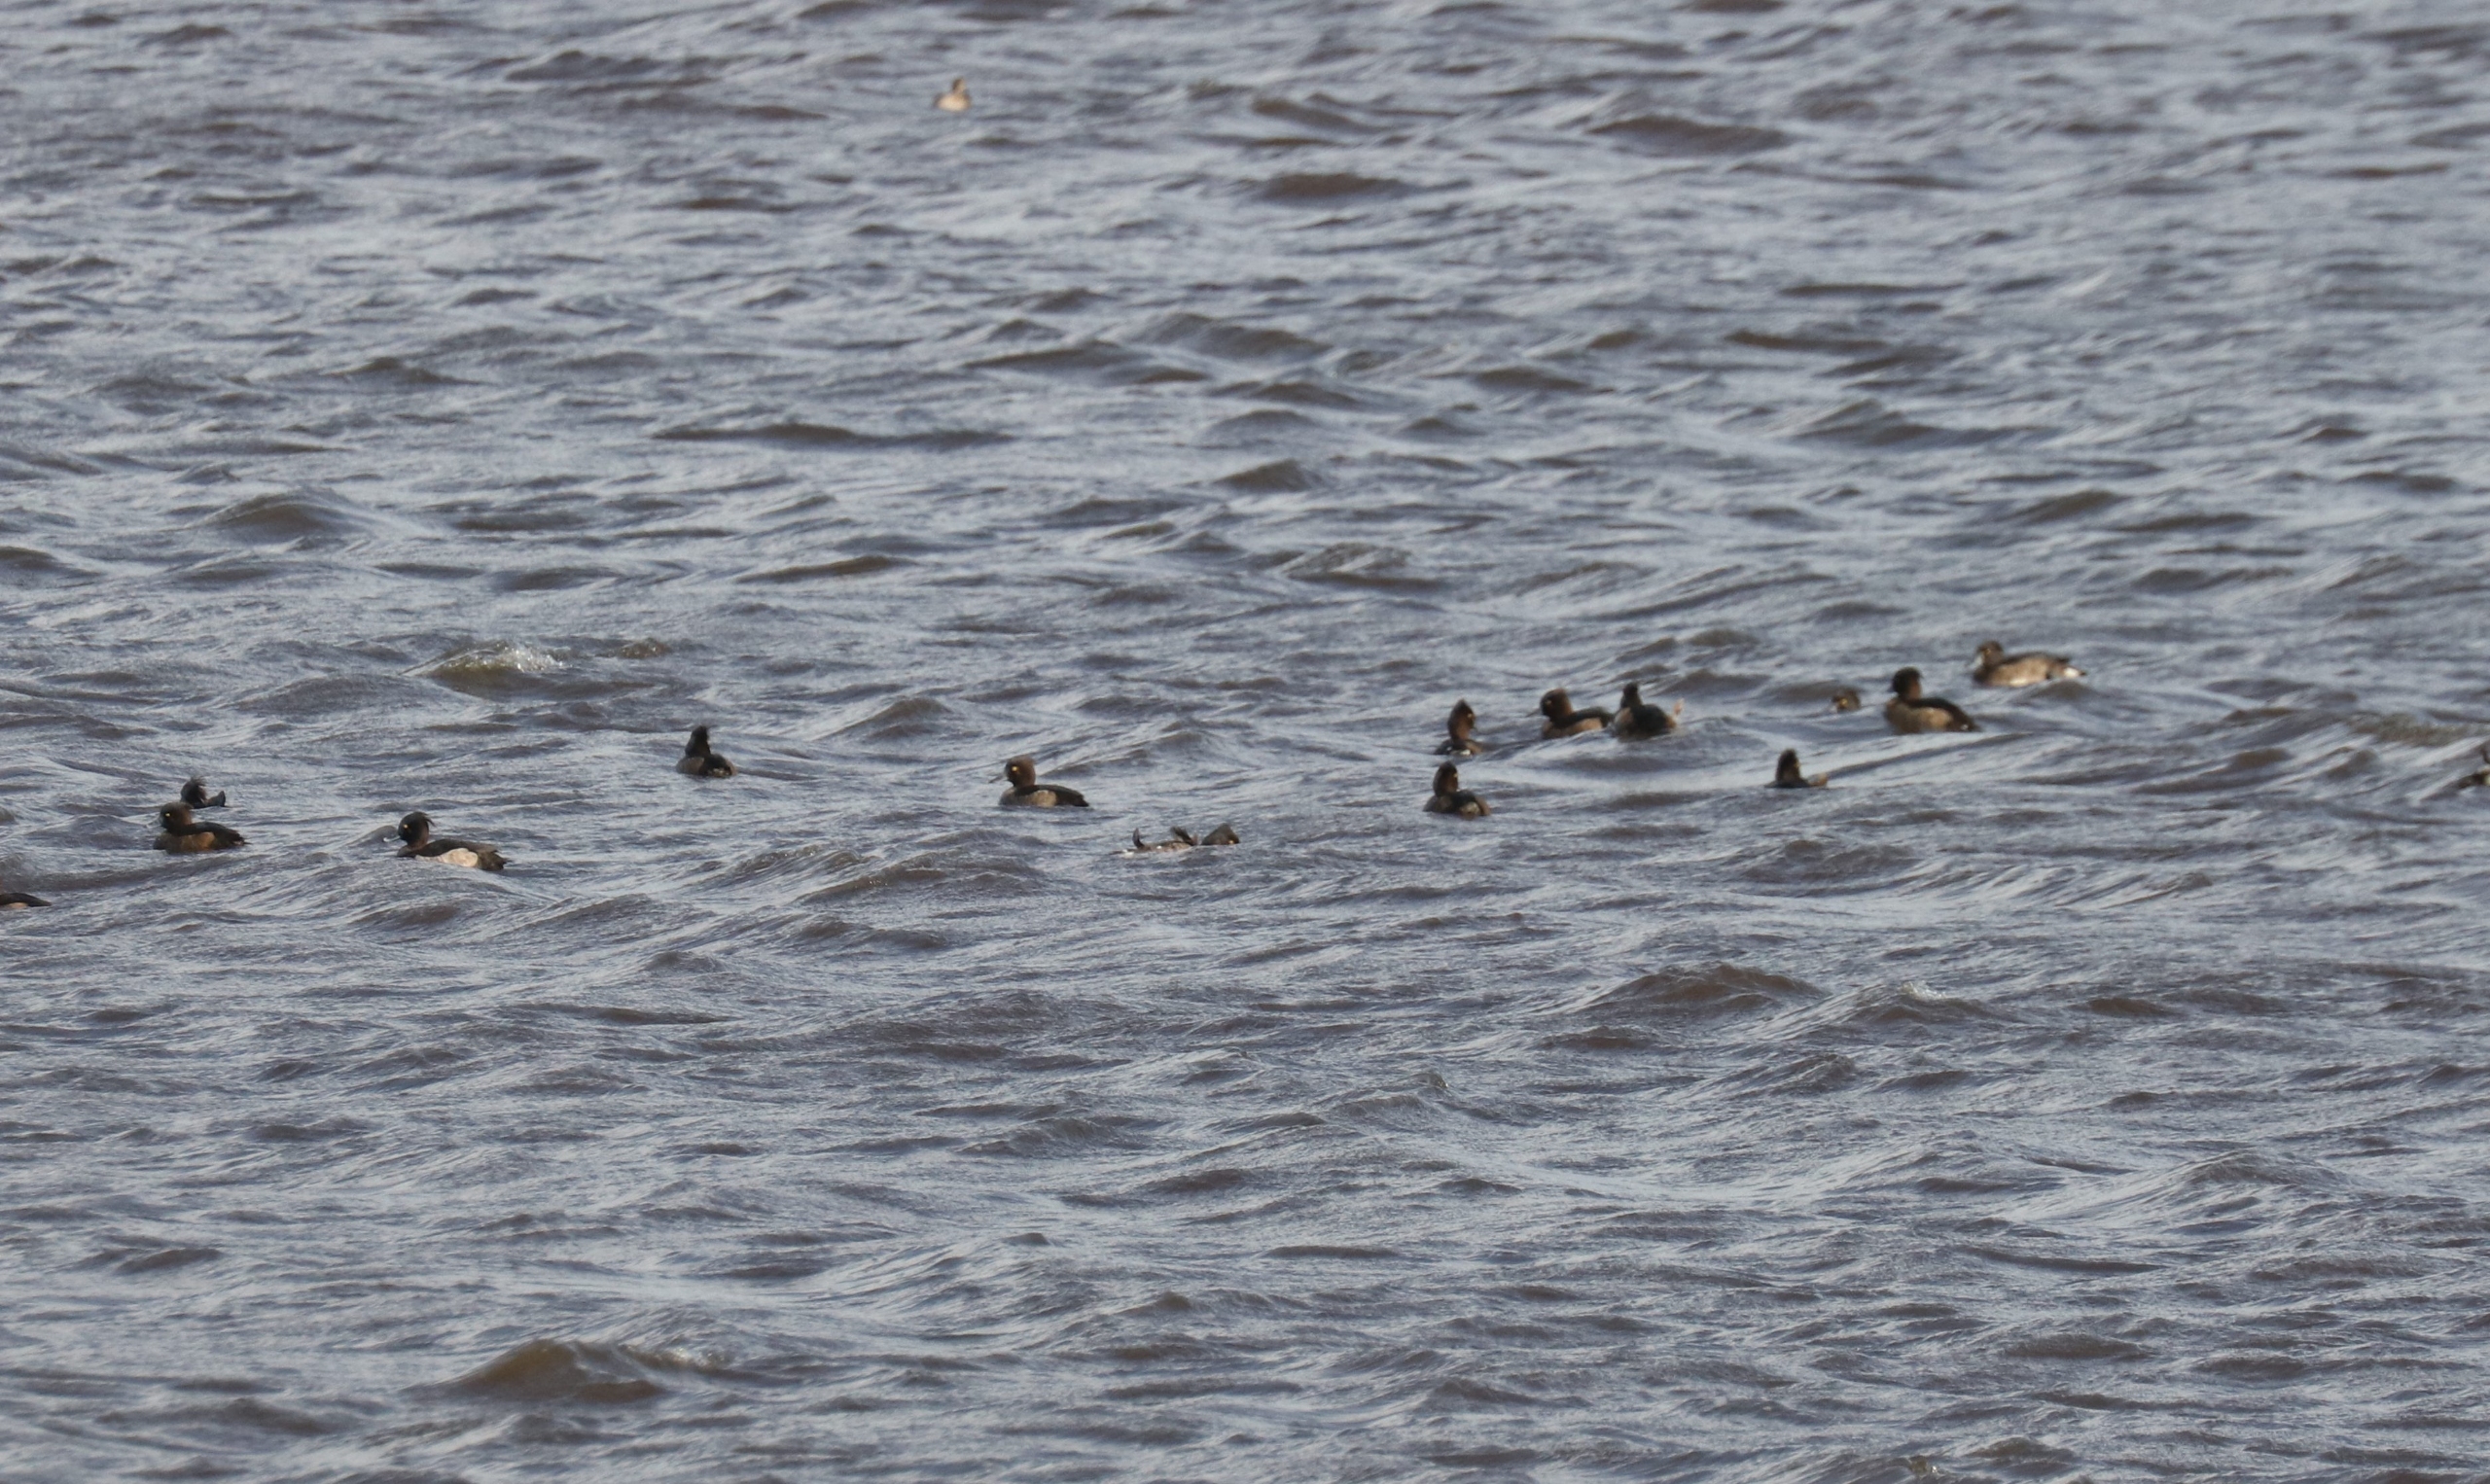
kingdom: Animalia
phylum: Chordata
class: Aves
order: Anseriformes
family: Anatidae
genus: Aythya
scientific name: Aythya fuligula
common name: Troldand
